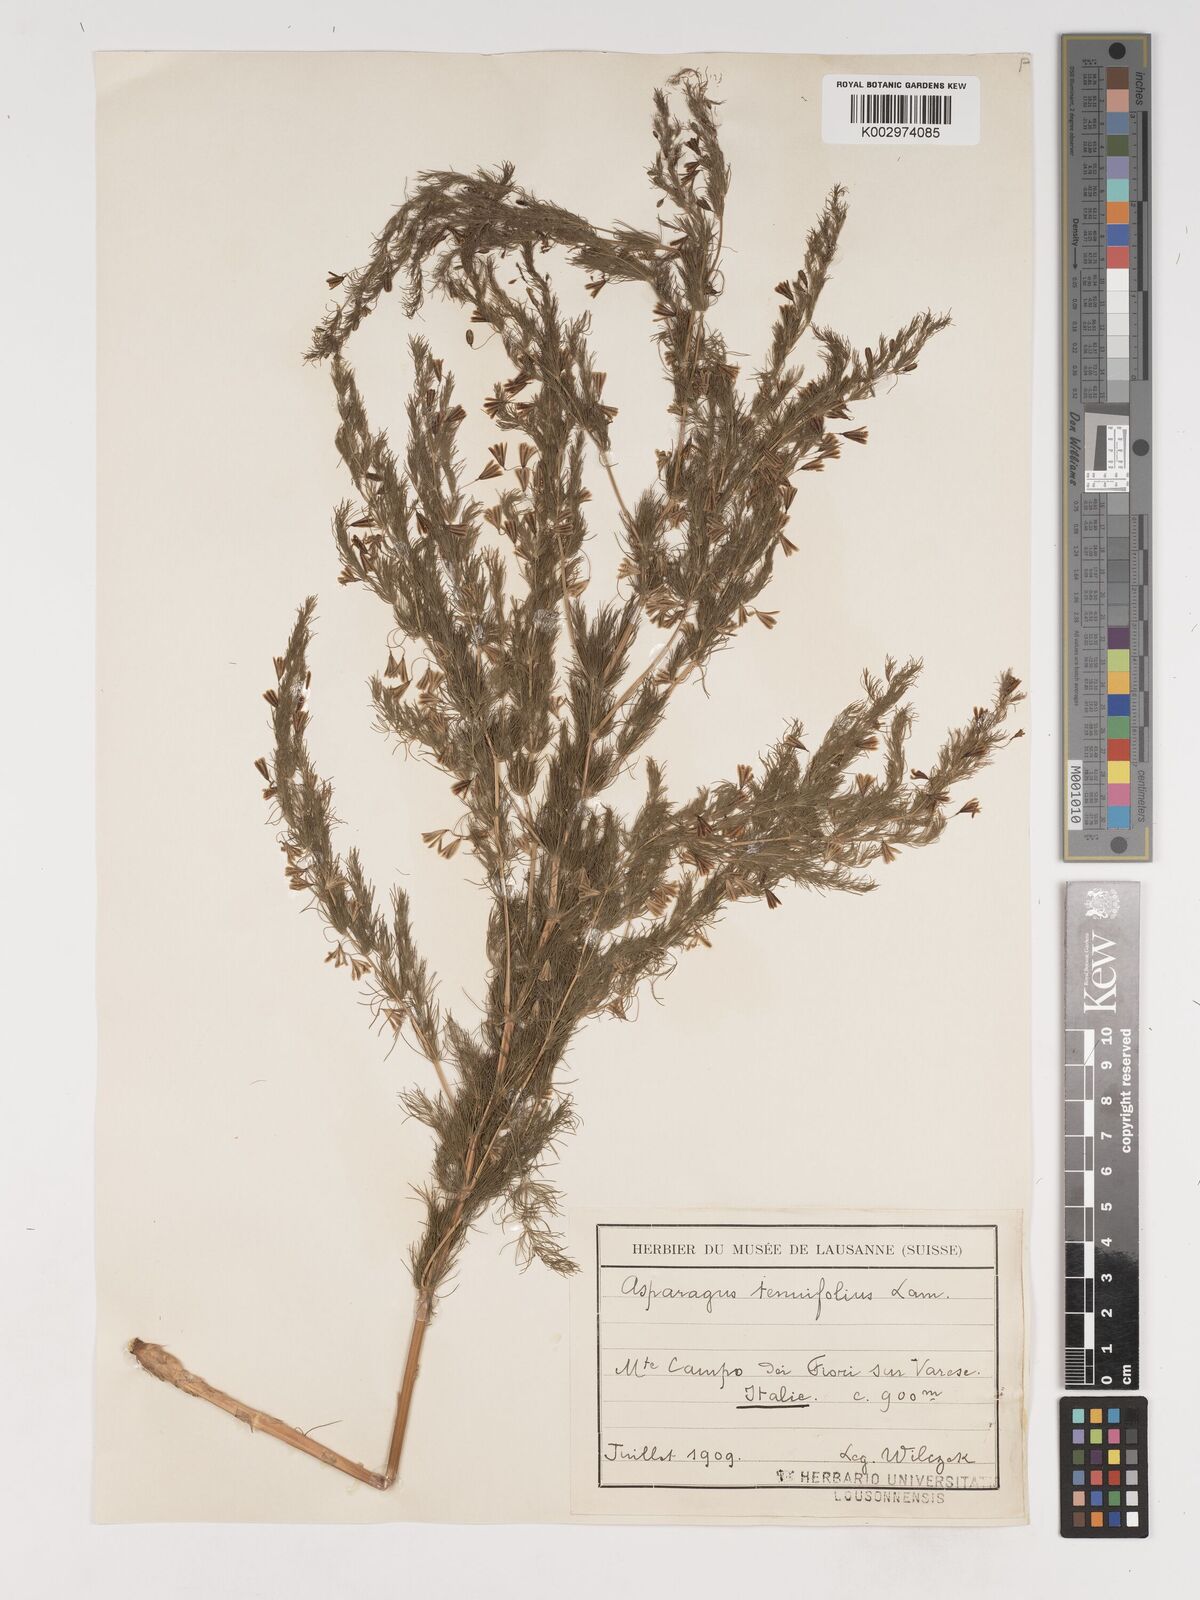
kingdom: Plantae
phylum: Tracheophyta
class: Liliopsida
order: Asparagales
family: Asparagaceae
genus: Asparagus
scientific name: Asparagus tenuifolius
